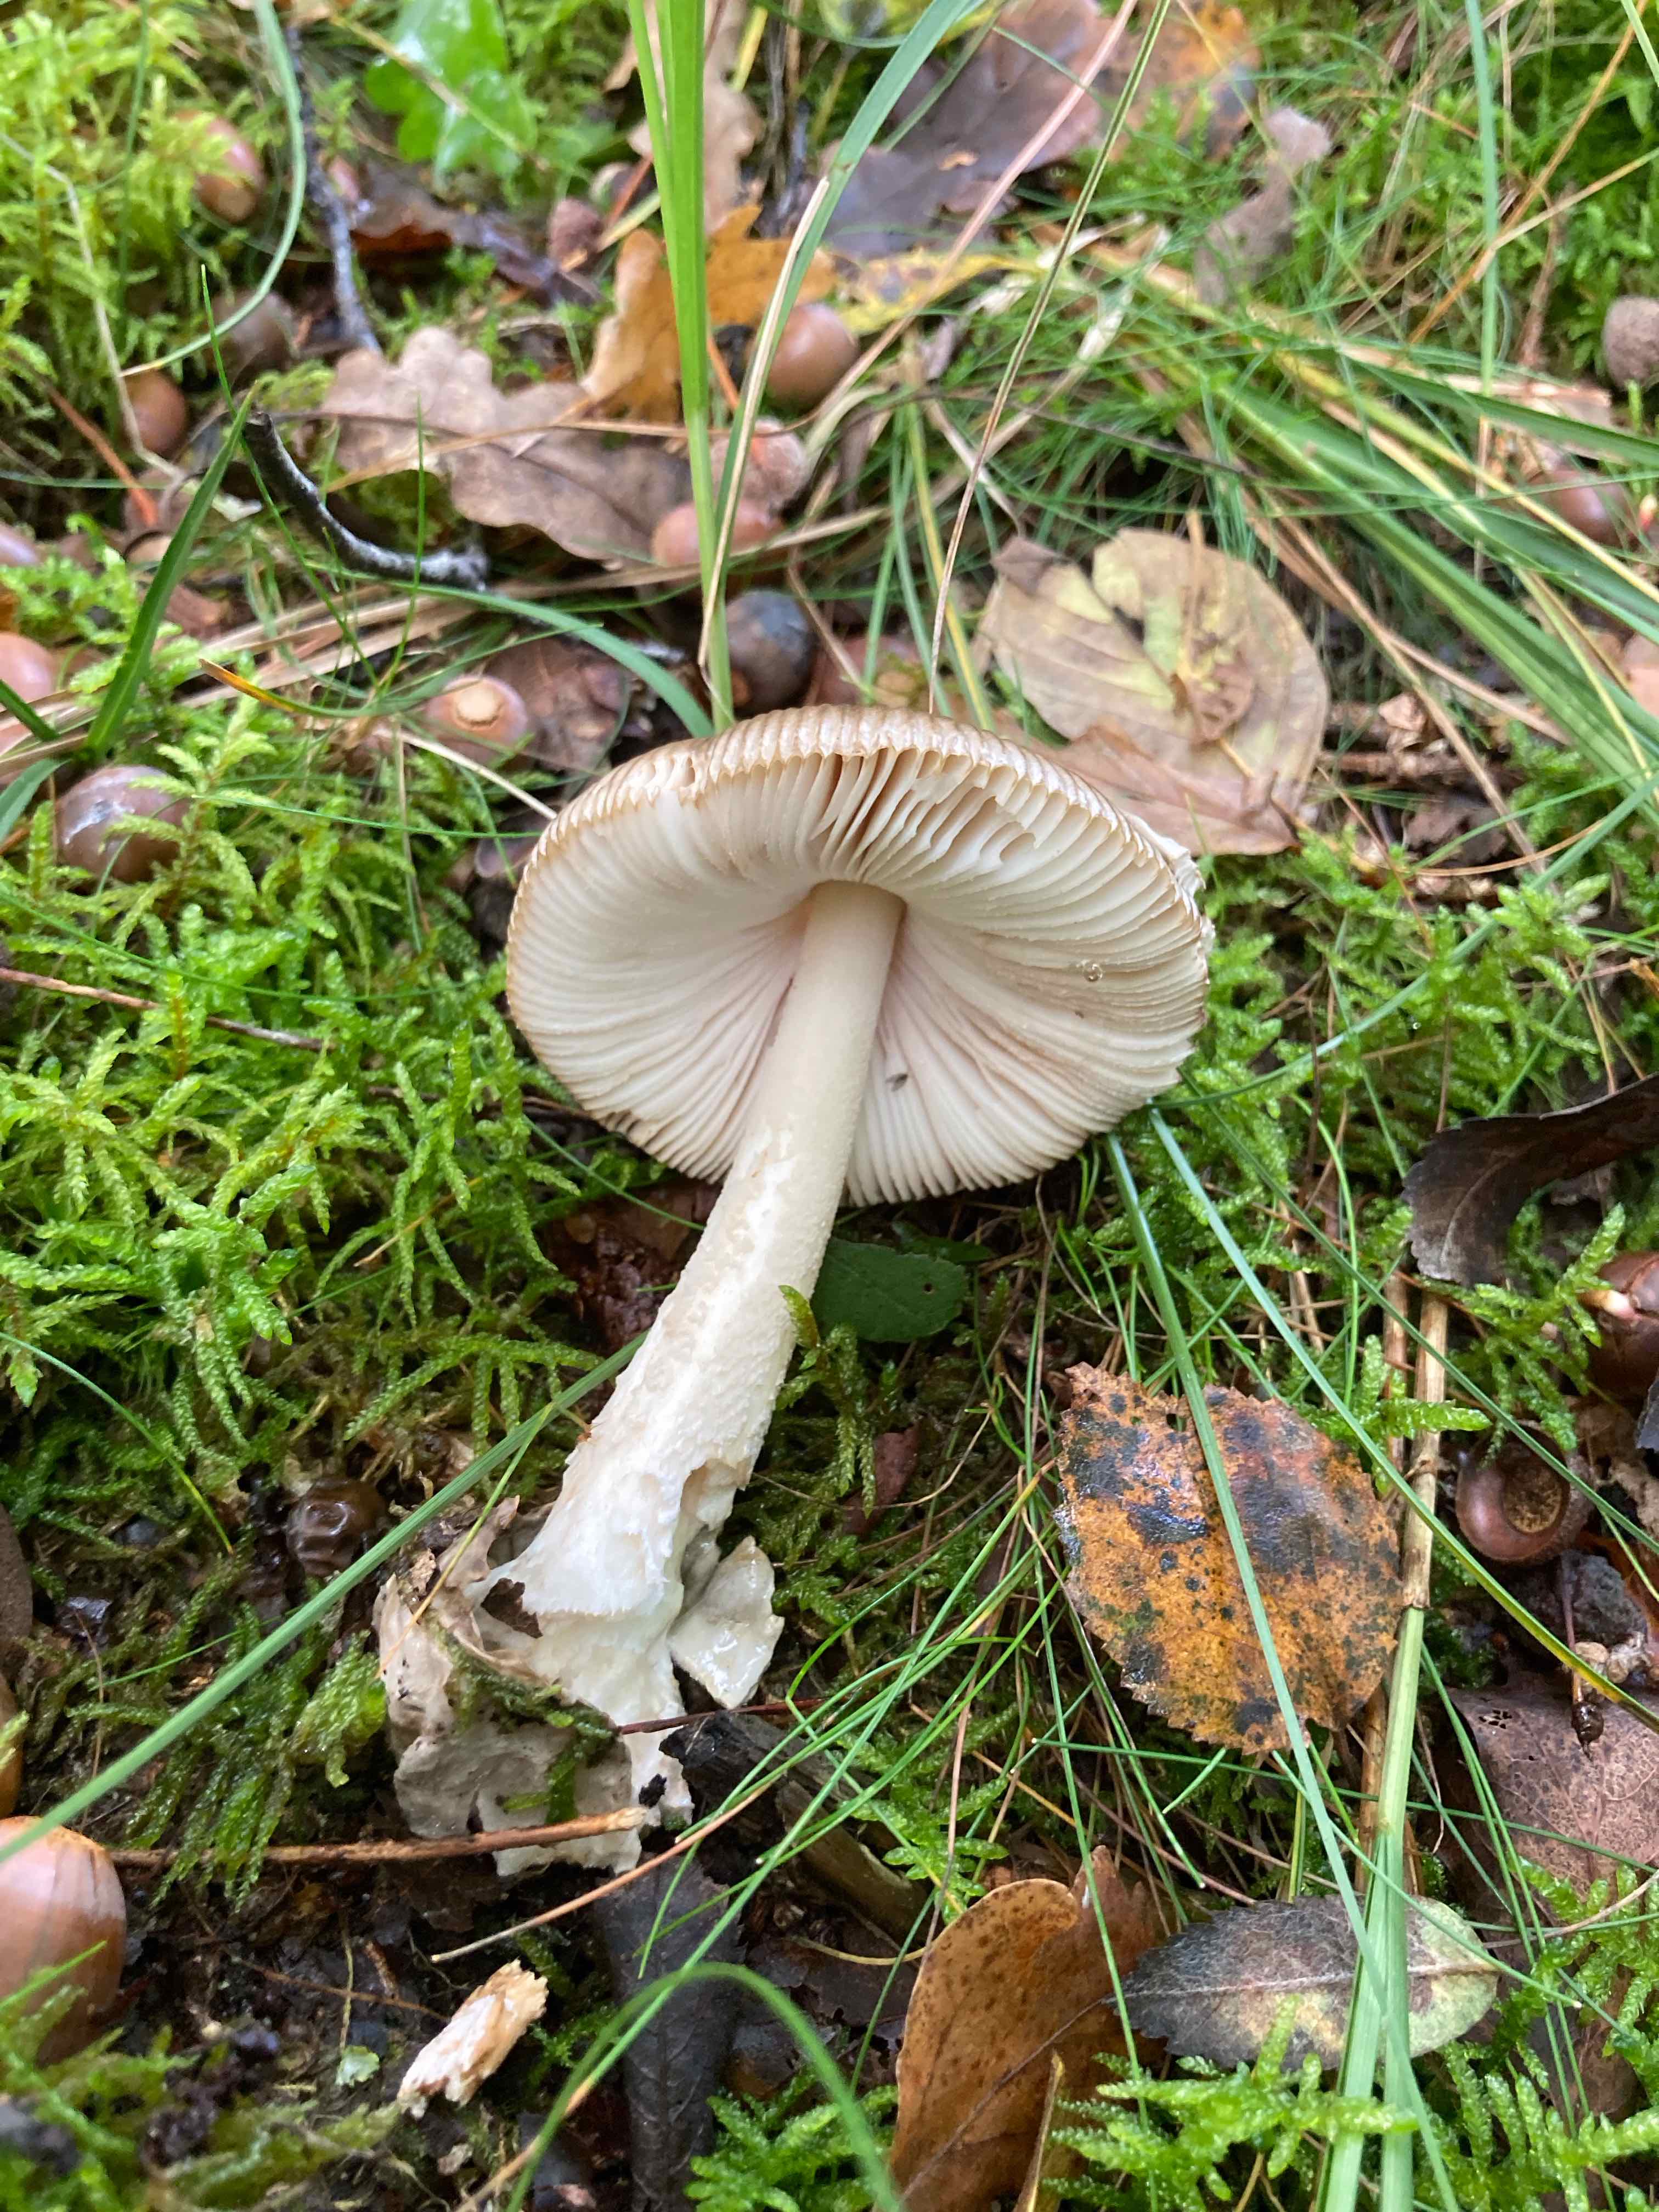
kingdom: Fungi
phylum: Basidiomycota
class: Agaricomycetes
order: Agaricales
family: Amanitaceae
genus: Amanita
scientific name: Amanita submembranacea
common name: gråspættet kam-fluesvamp
